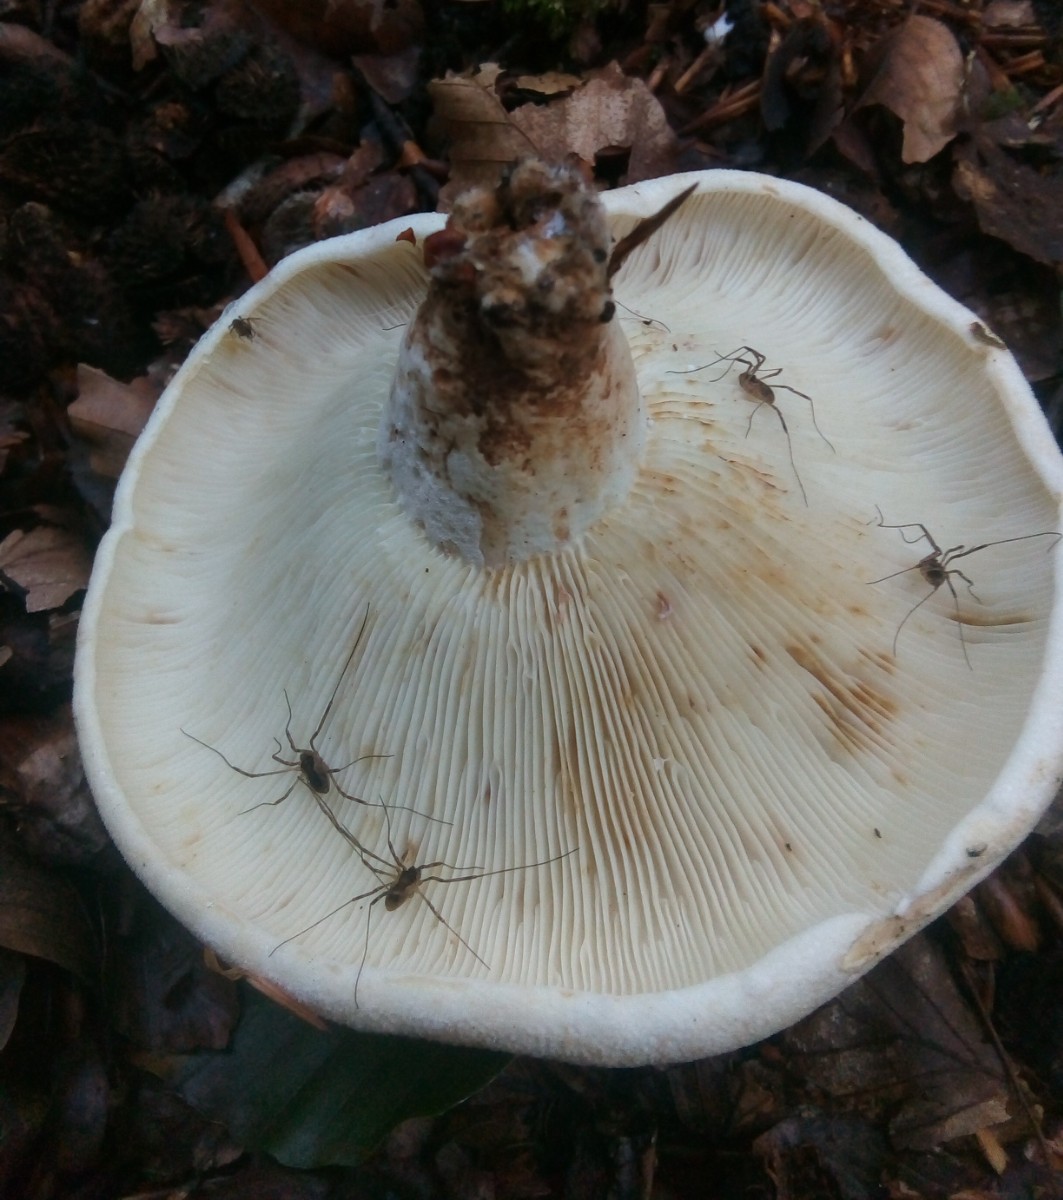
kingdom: Fungi
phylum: Basidiomycota
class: Agaricomycetes
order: Russulales
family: Russulaceae
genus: Lactifluus
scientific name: Lactifluus vellereus
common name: hvidfiltet mælkehat
